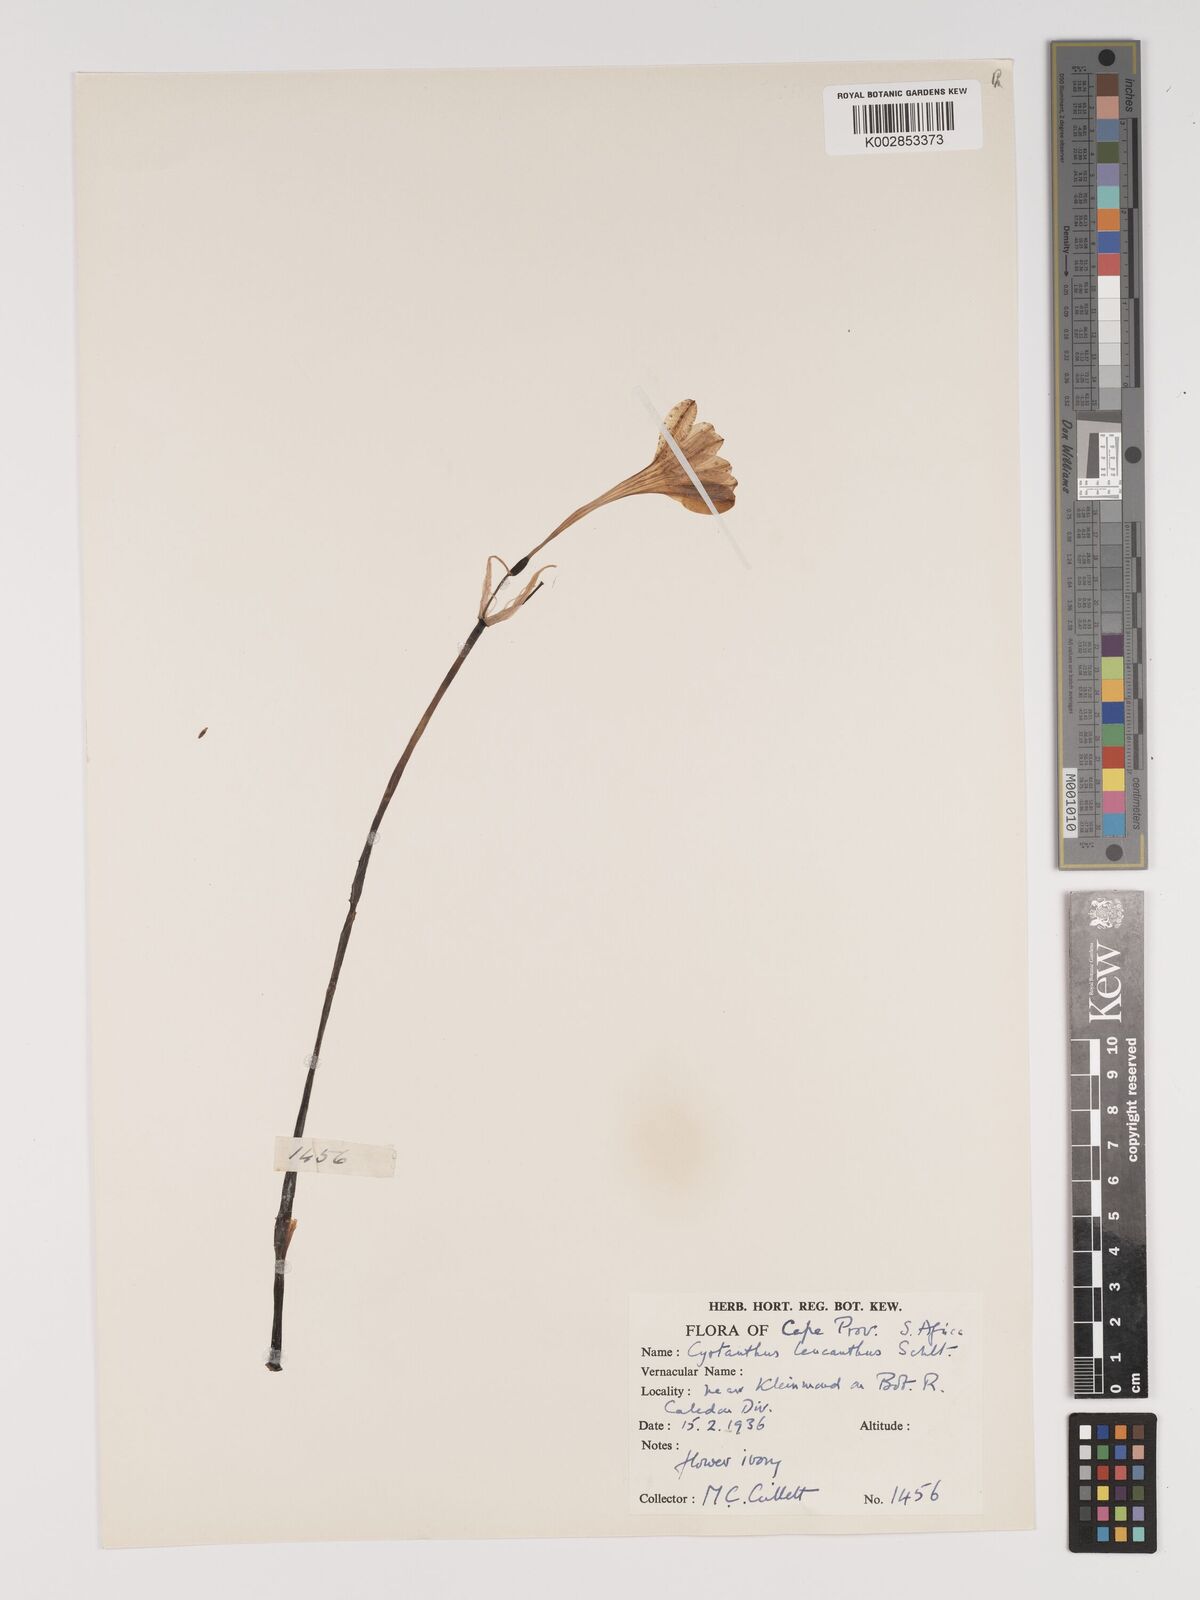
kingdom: Plantae
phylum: Tracheophyta
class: Liliopsida
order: Asparagales
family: Amaryllidaceae
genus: Cyrtanthus
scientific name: Cyrtanthus leucanthus
